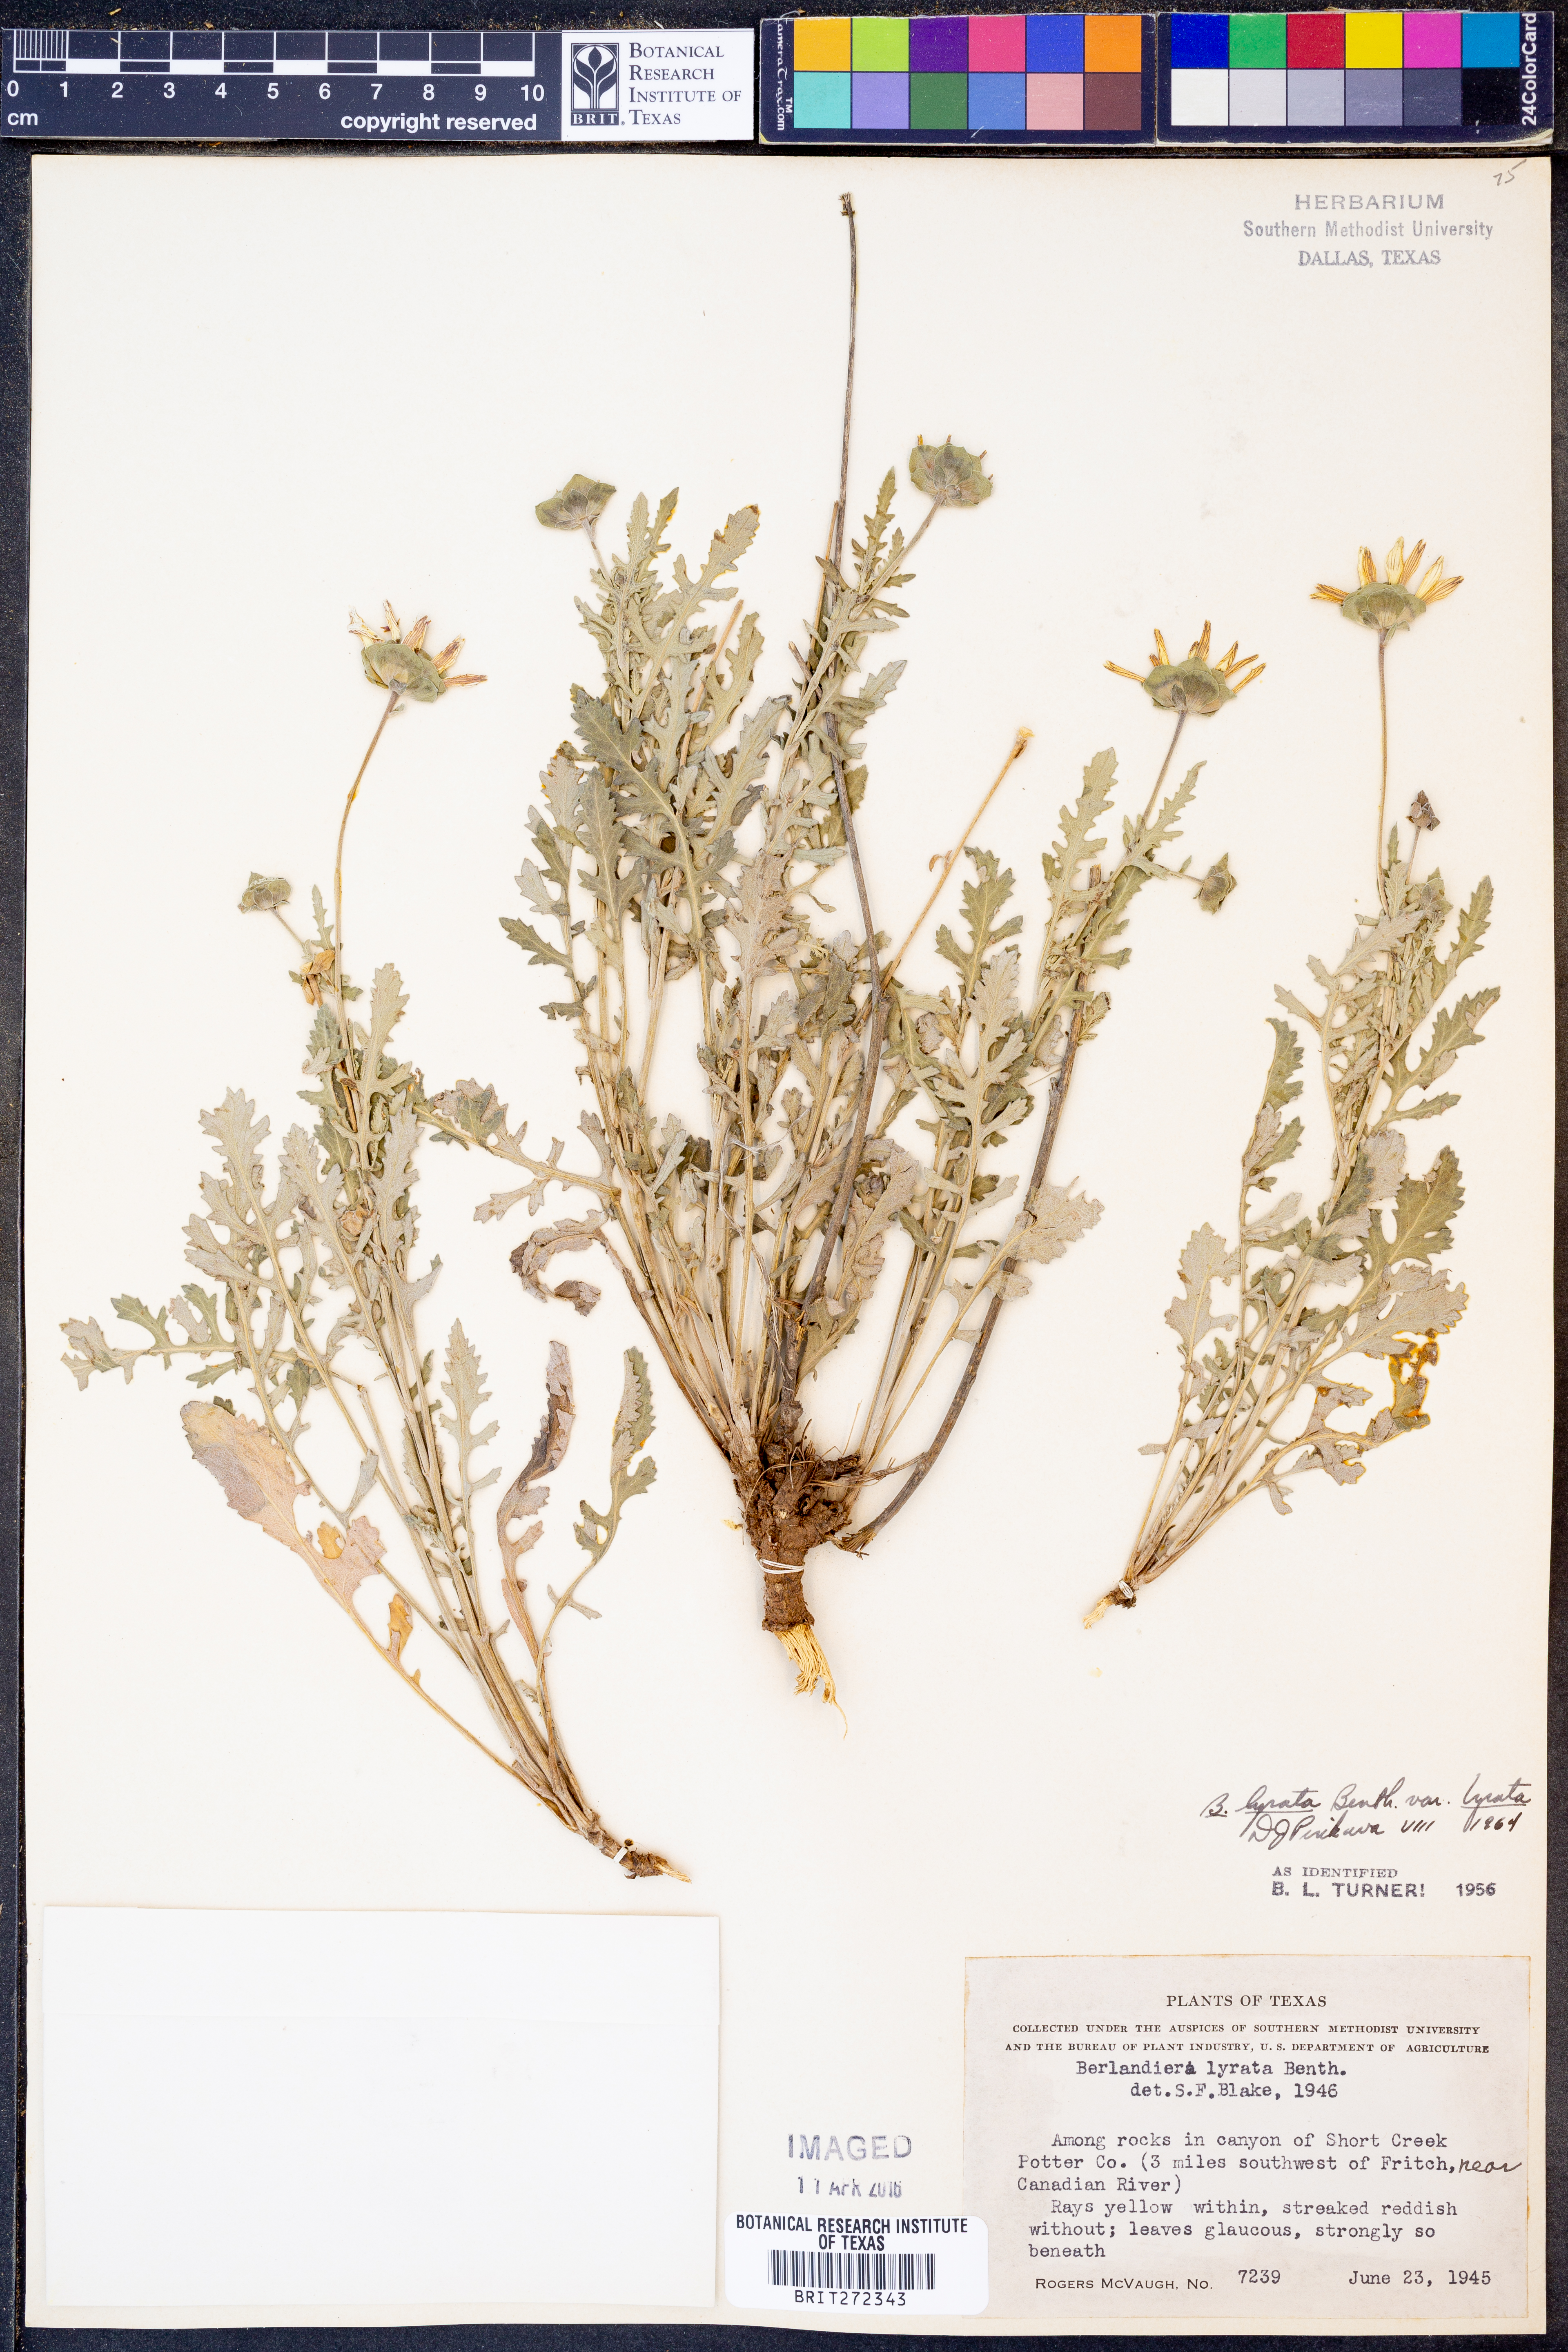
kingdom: Plantae
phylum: Tracheophyta
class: Magnoliopsida
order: Asterales
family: Asteraceae
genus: Berlandiera
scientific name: Berlandiera lyrata
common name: Chocolate-flower
